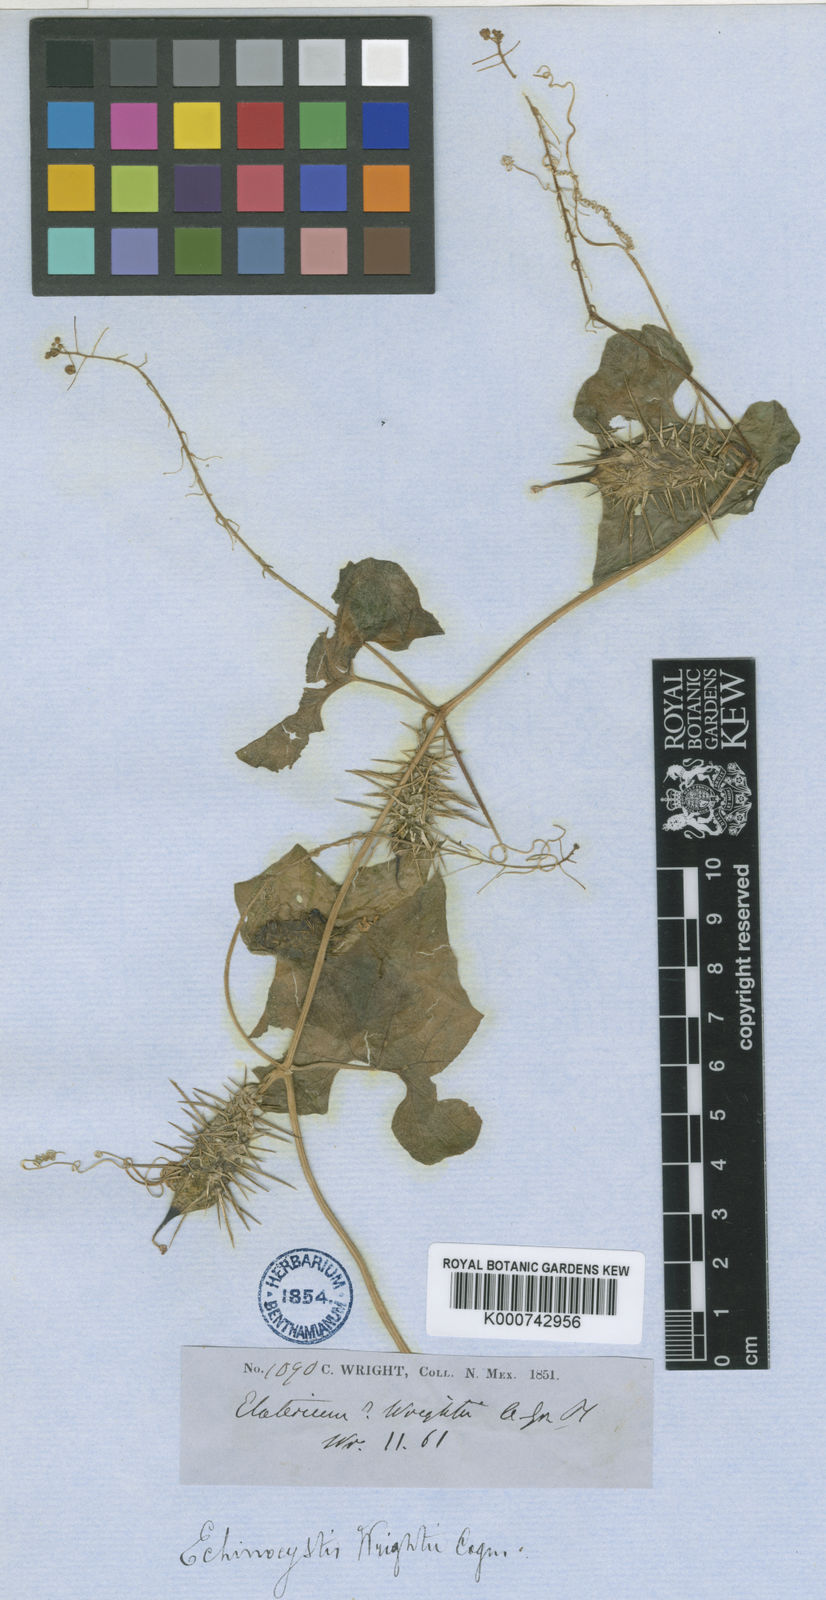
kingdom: Plantae
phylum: Tracheophyta
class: Magnoliopsida
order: Cucurbitales
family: Cucurbitaceae
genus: Echinopepon
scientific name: Echinopepon wrightii
